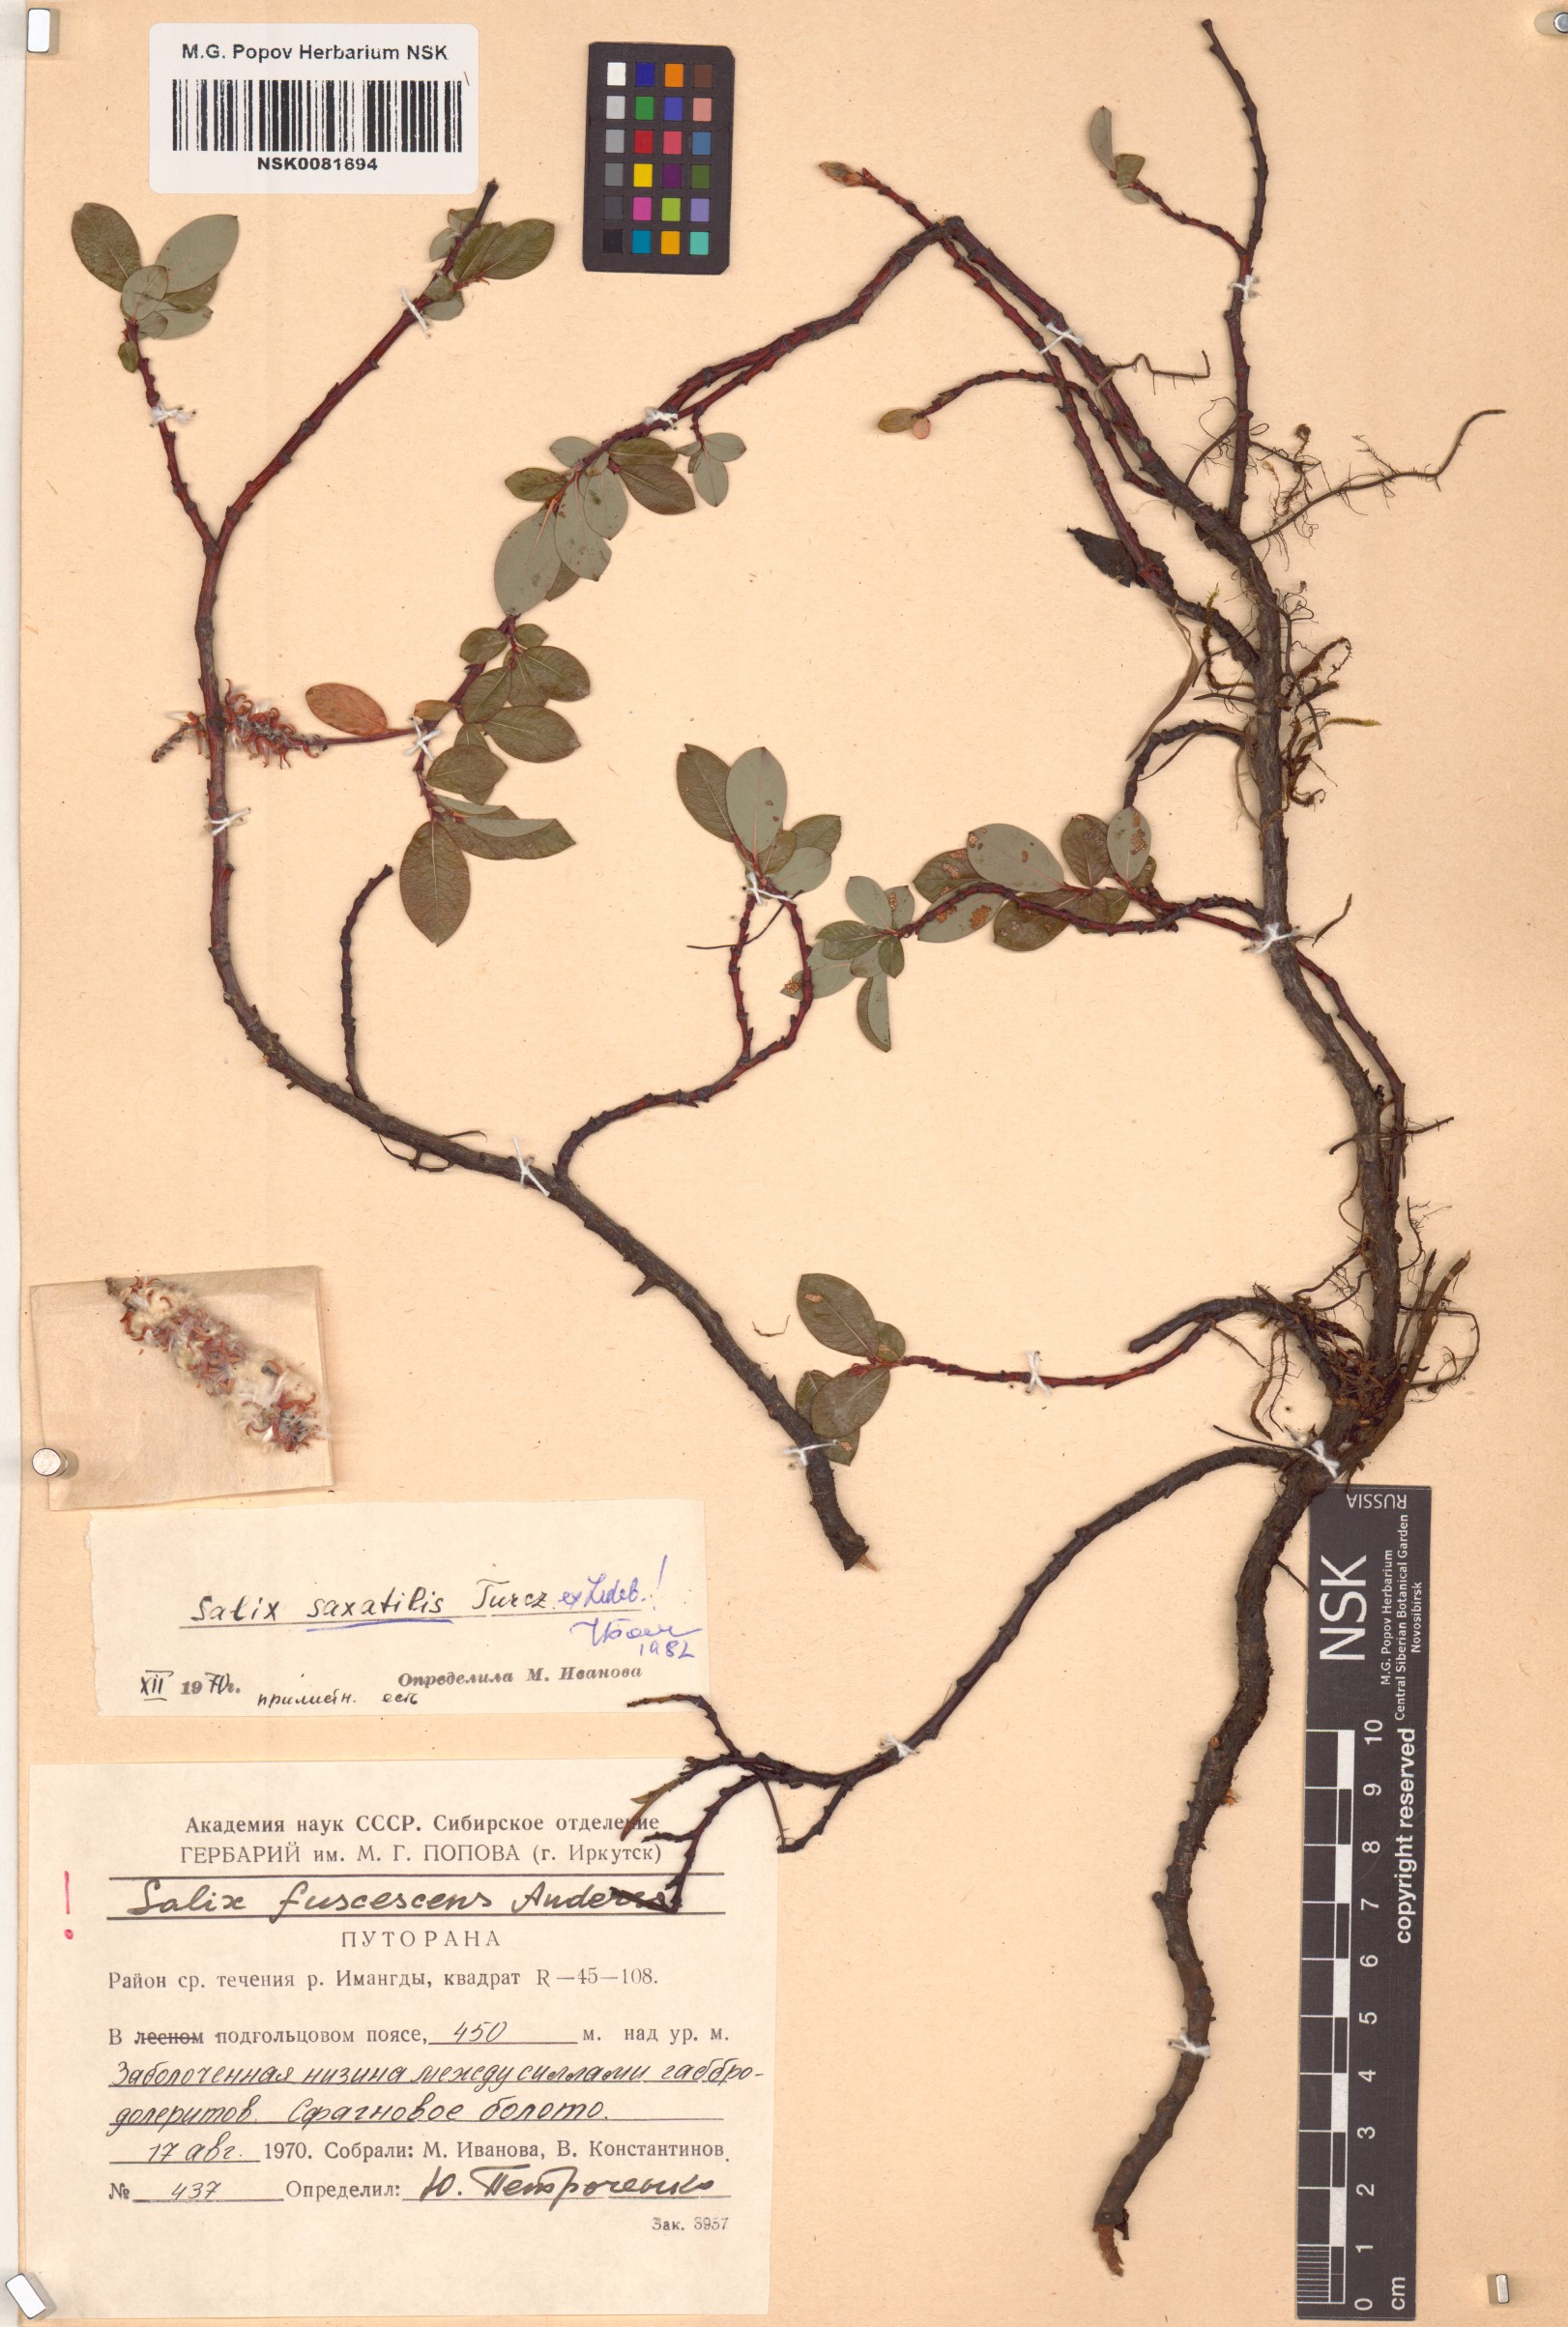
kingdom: Plantae
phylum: Tracheophyta
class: Magnoliopsida
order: Malpighiales
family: Salicaceae
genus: Salix
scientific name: Salix saxatilis
